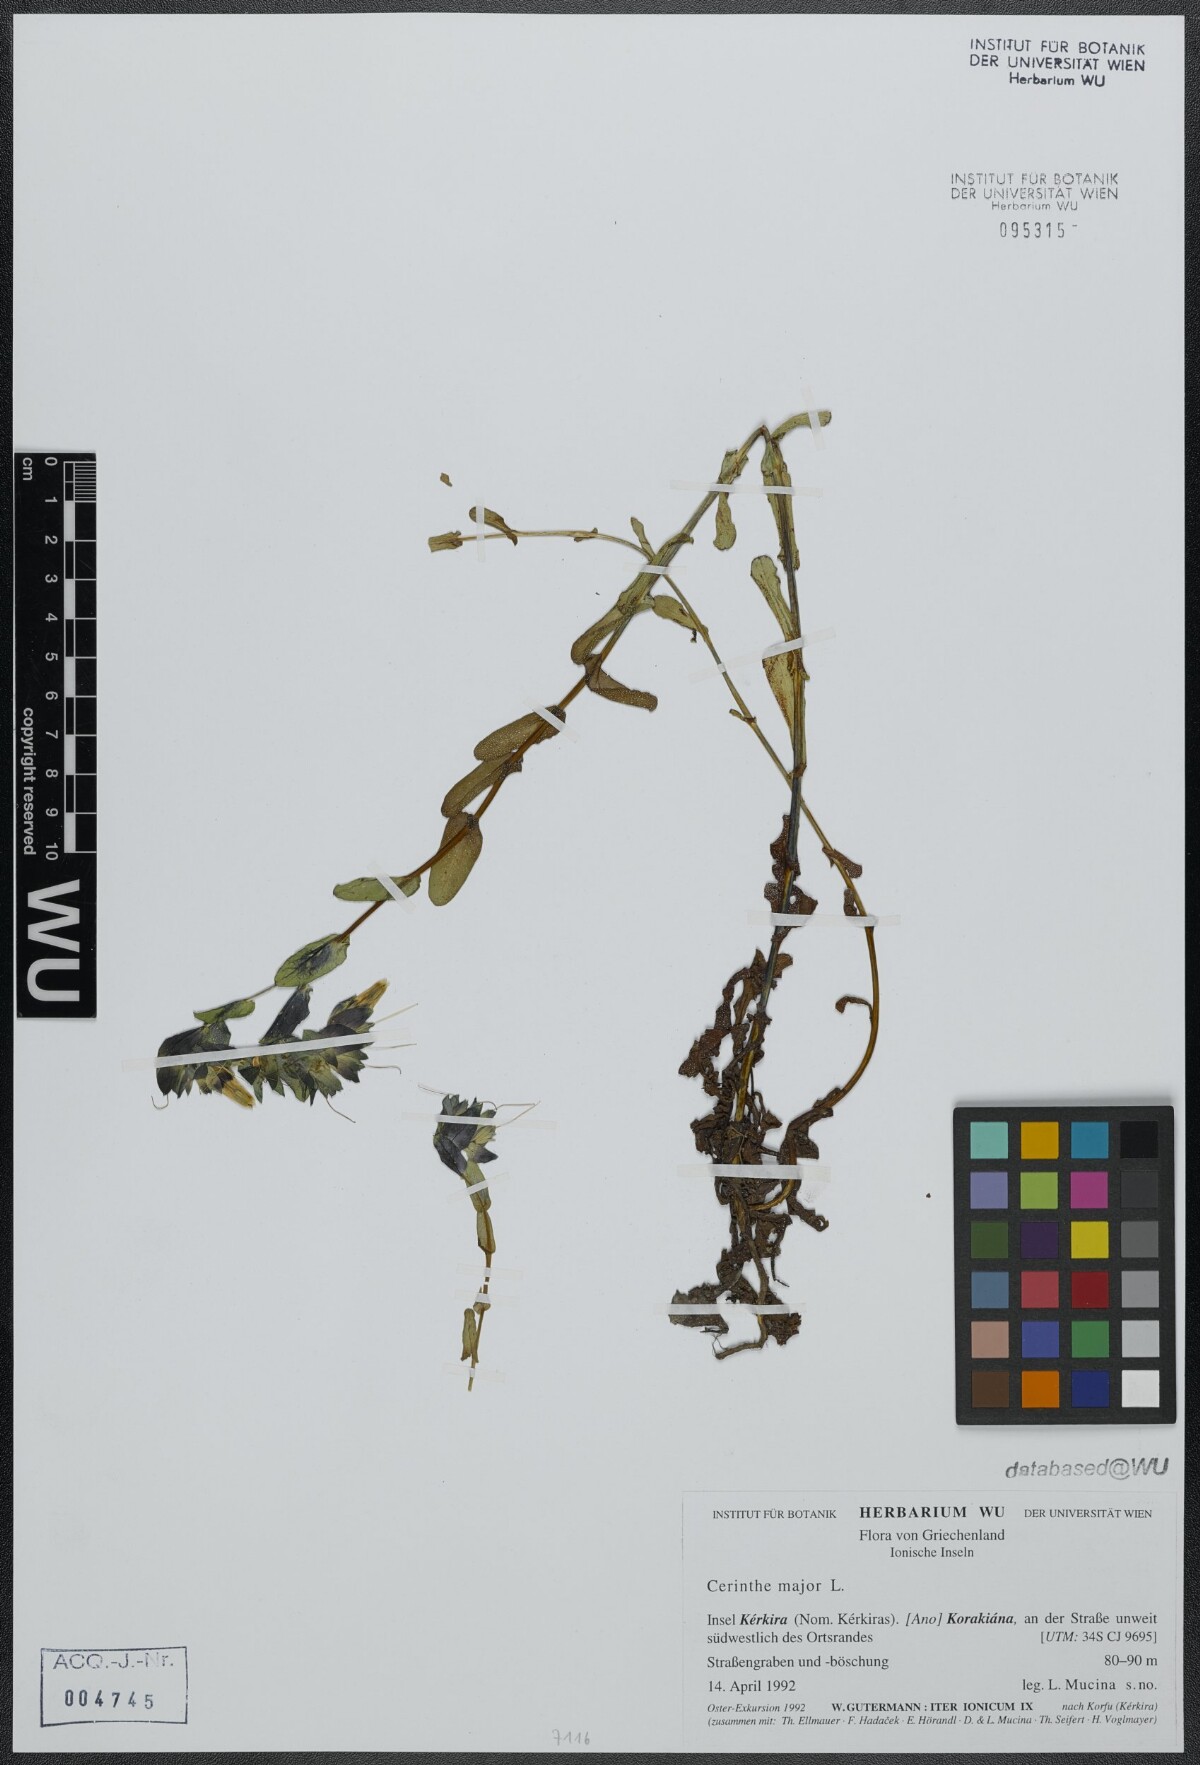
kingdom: Plantae
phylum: Tracheophyta
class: Magnoliopsida
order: Boraginales
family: Boraginaceae
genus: Cerinthe
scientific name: Cerinthe major
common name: Greater honeywort
